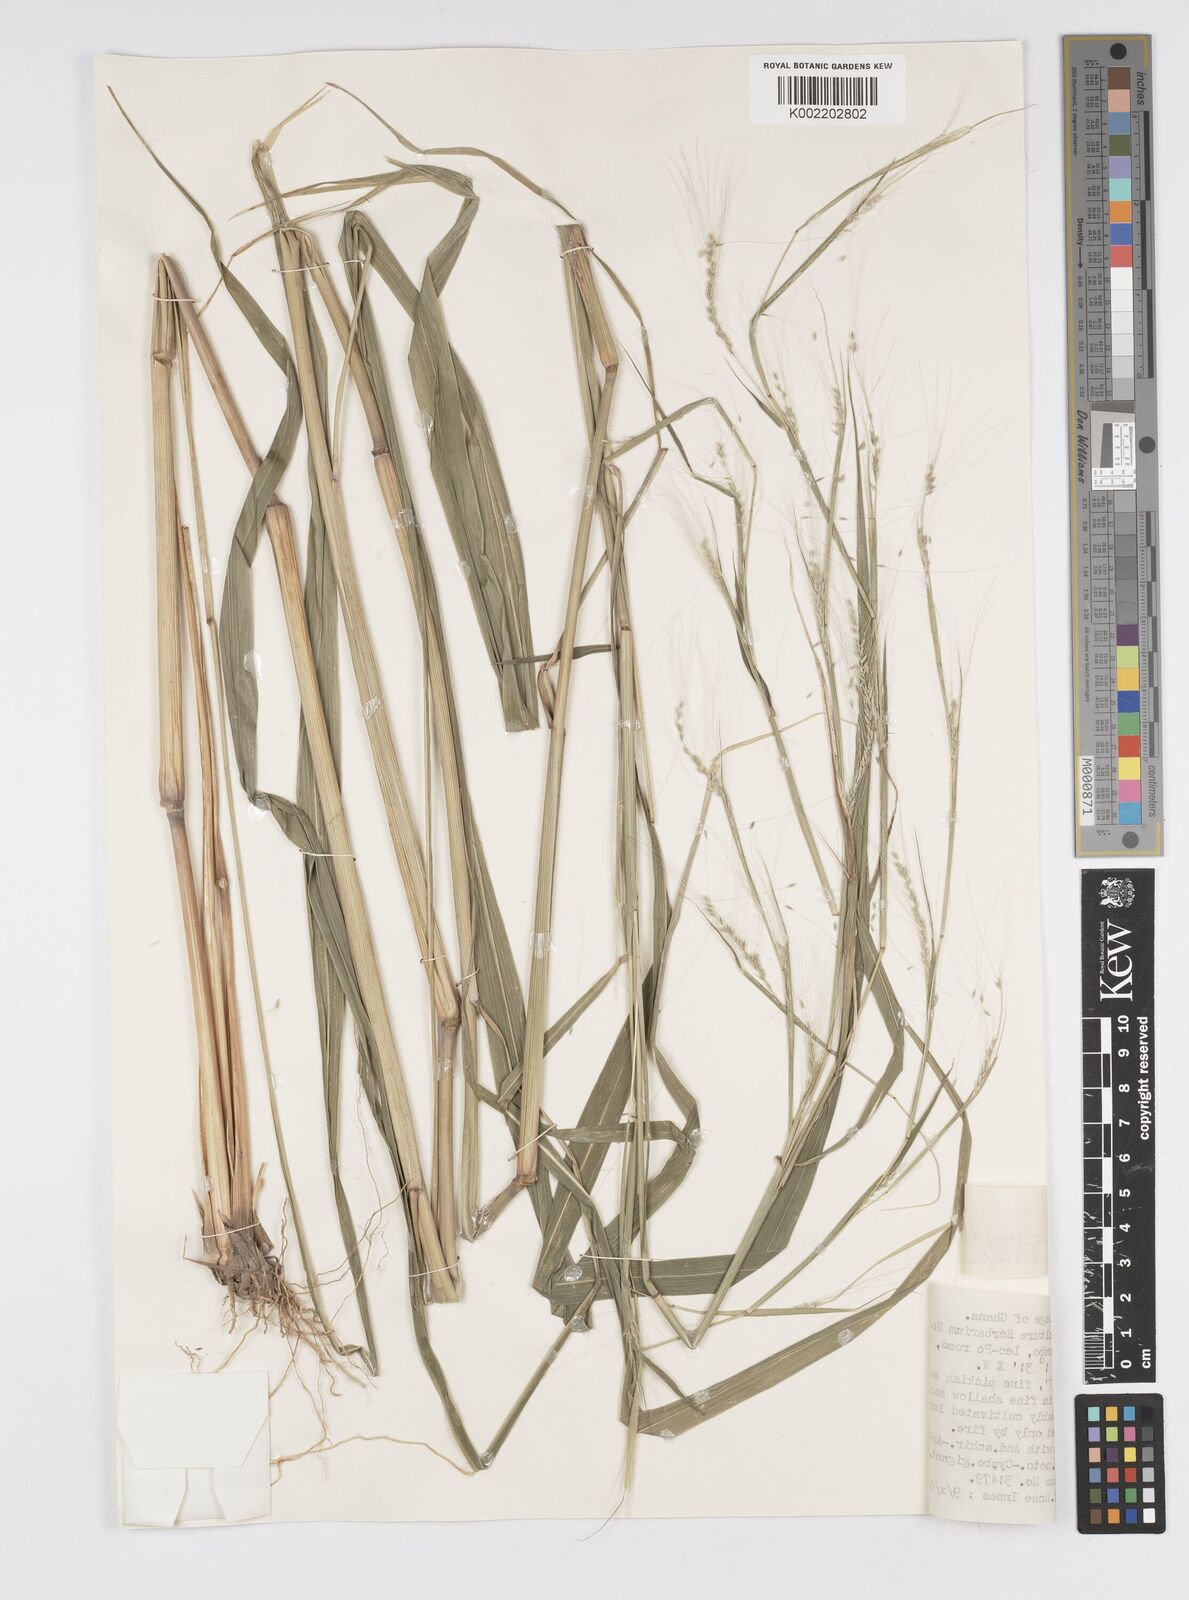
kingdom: Plantae
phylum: Tracheophyta
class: Liliopsida
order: Poales
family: Poaceae
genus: Cenchrus
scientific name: Cenchrus unisetus
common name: Natal grass
